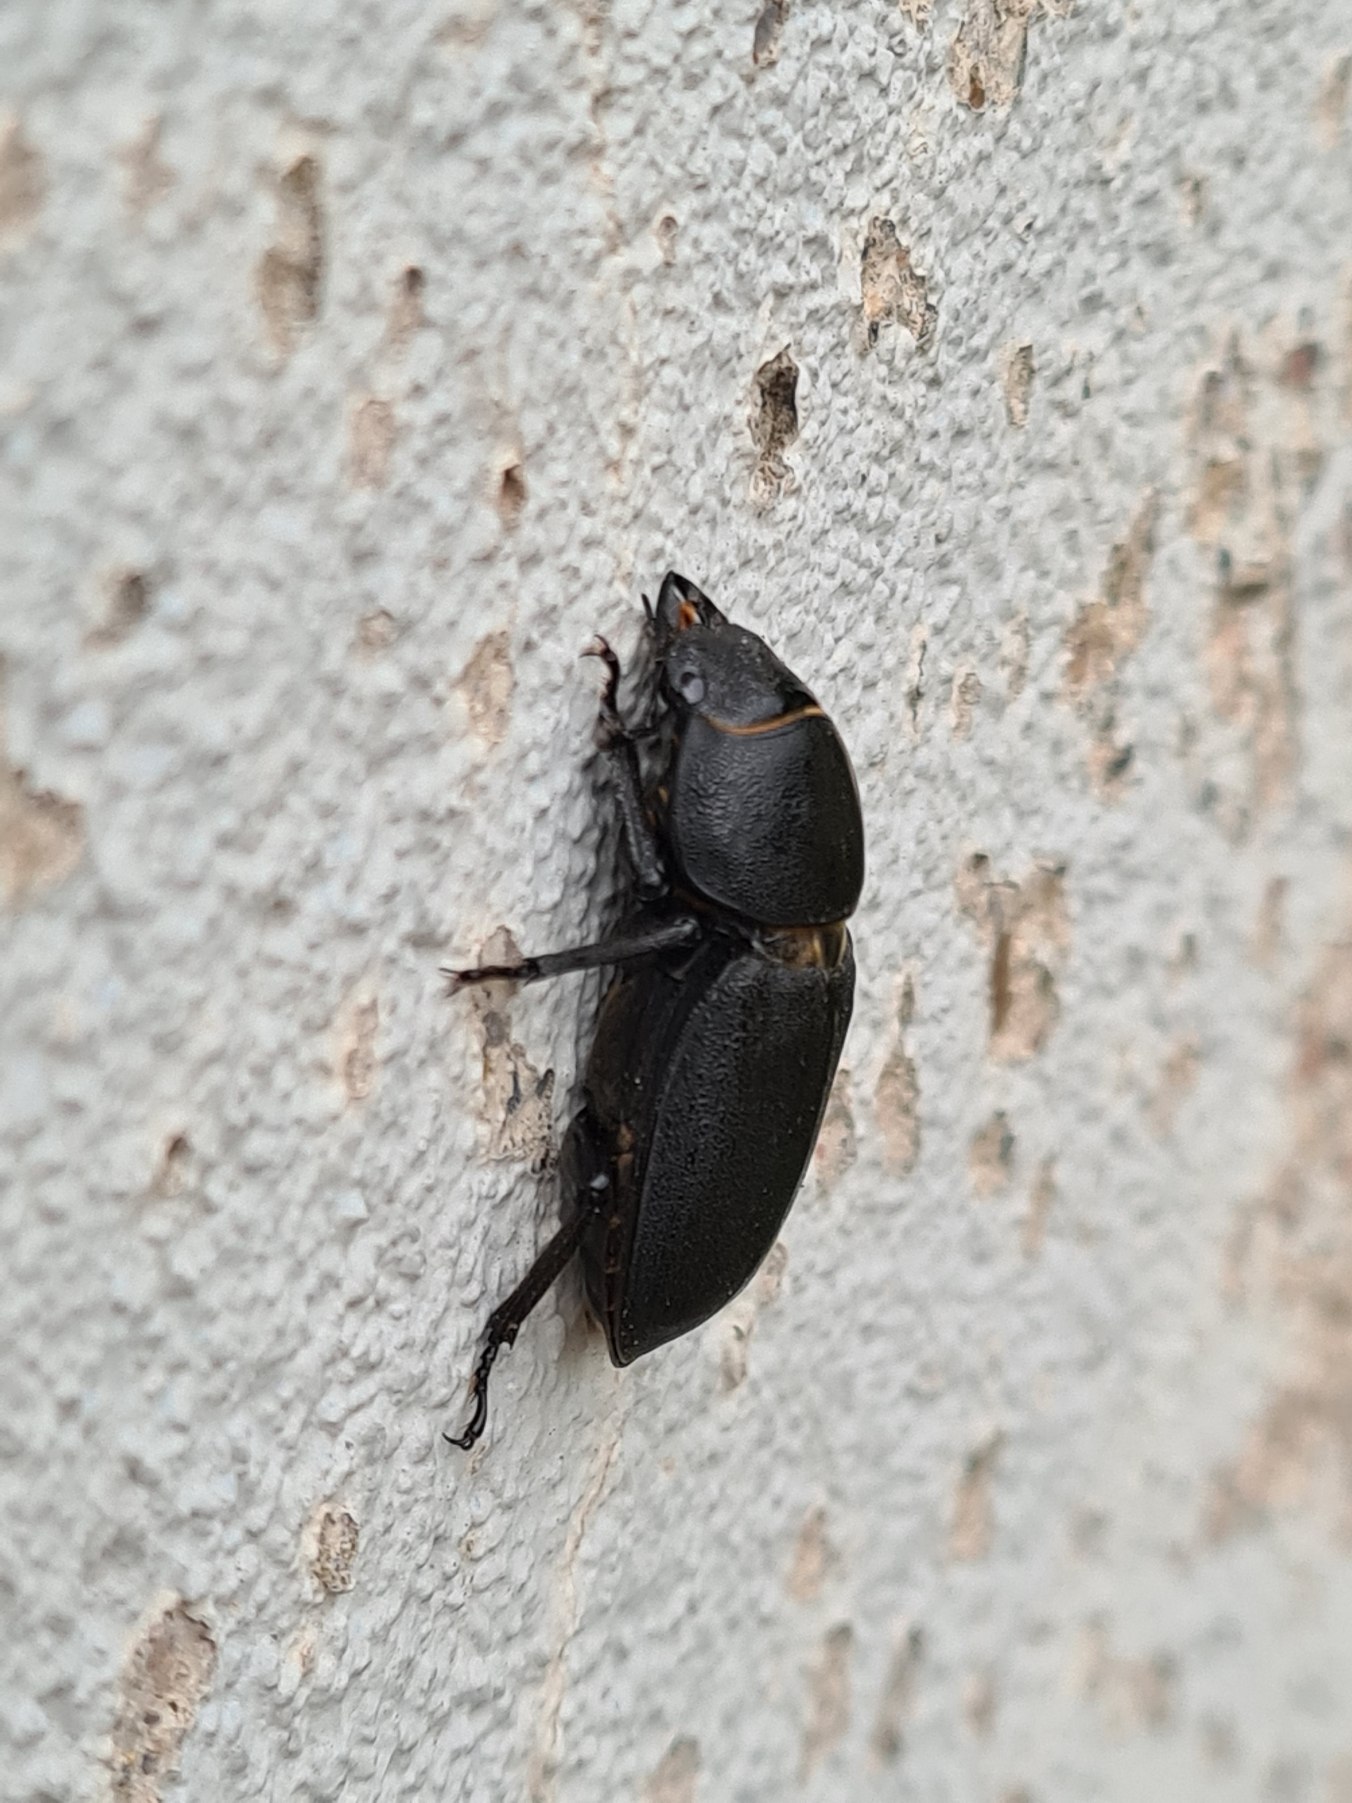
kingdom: Animalia
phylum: Arthropoda
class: Insecta
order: Coleoptera
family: Lucanidae
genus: Dorcus
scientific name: Dorcus parallelipipedus
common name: Bøghjort
